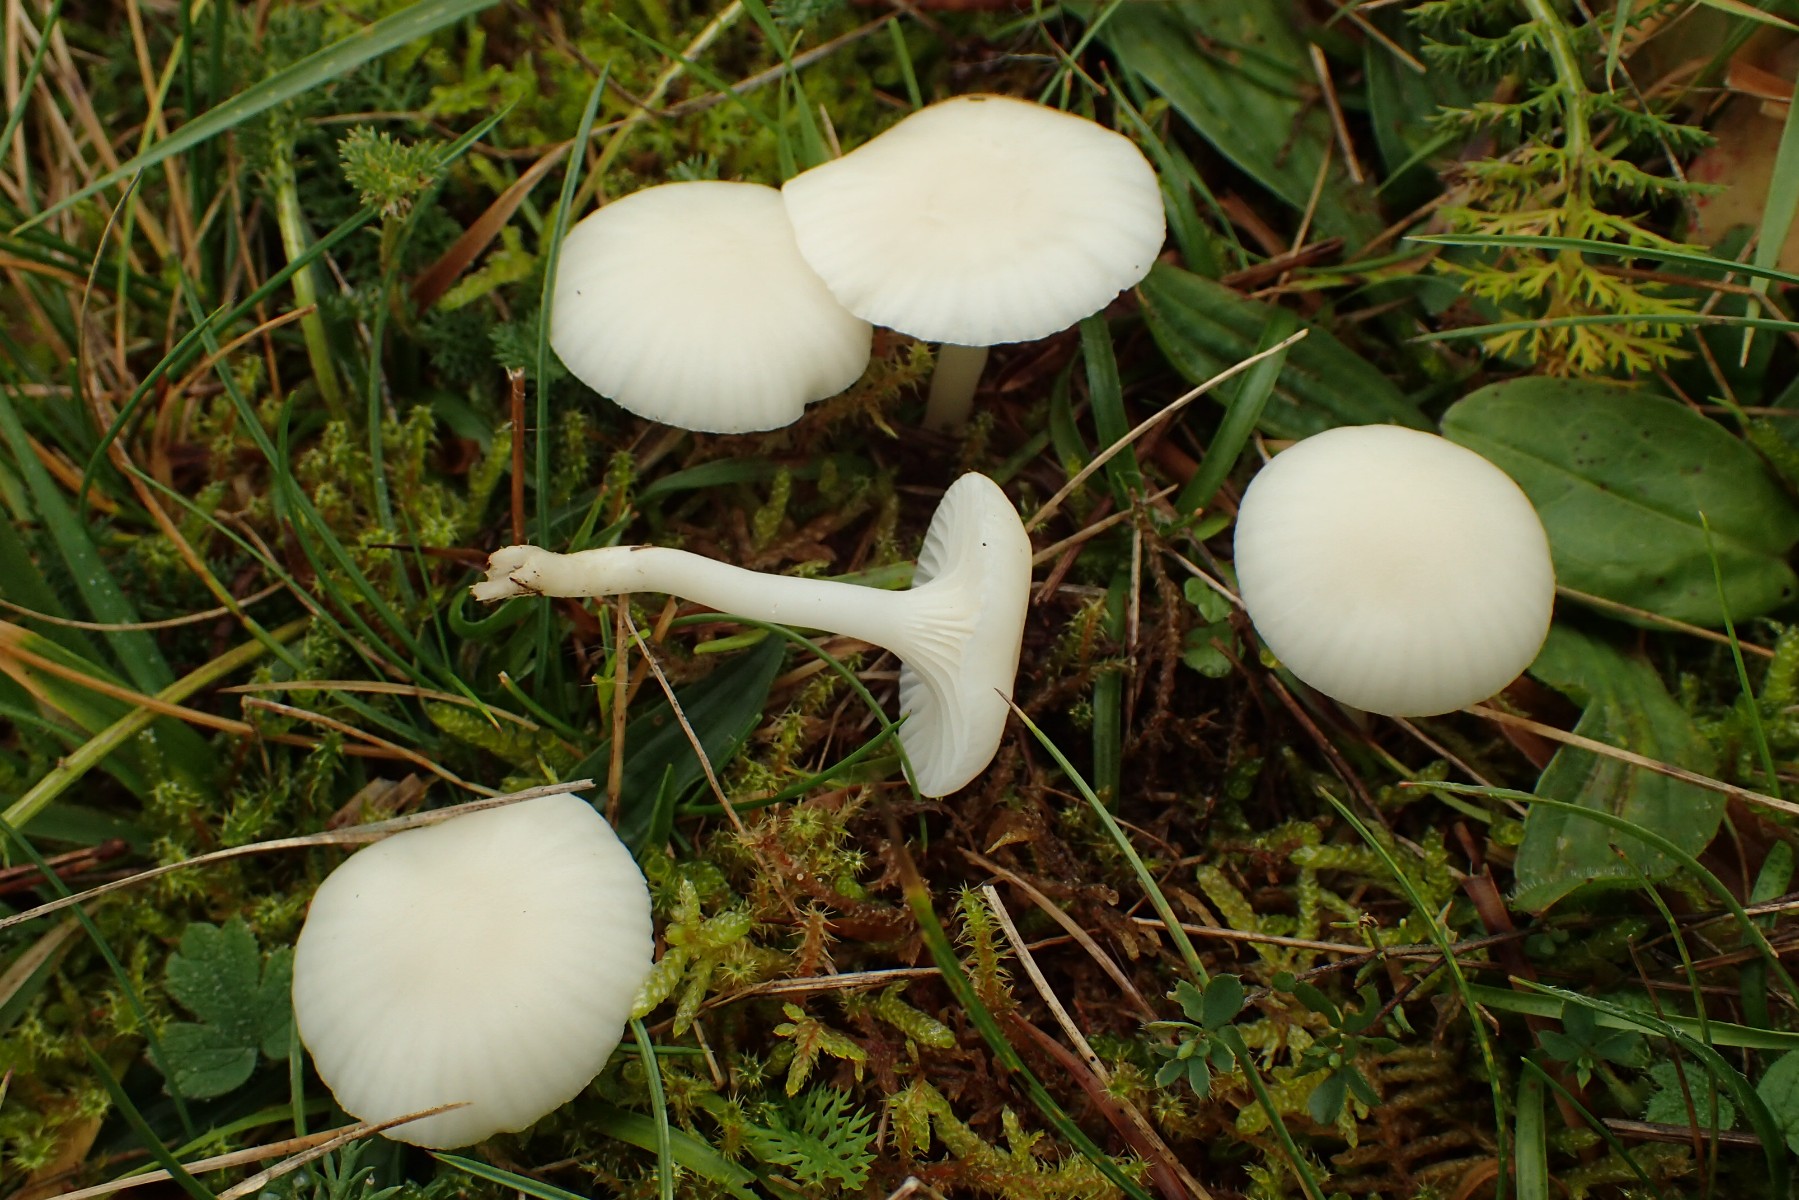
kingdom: Fungi
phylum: Basidiomycota
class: Agaricomycetes
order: Agaricales
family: Hygrophoraceae
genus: Cuphophyllus
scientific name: Cuphophyllus virgineus
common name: snehvid vokshat
